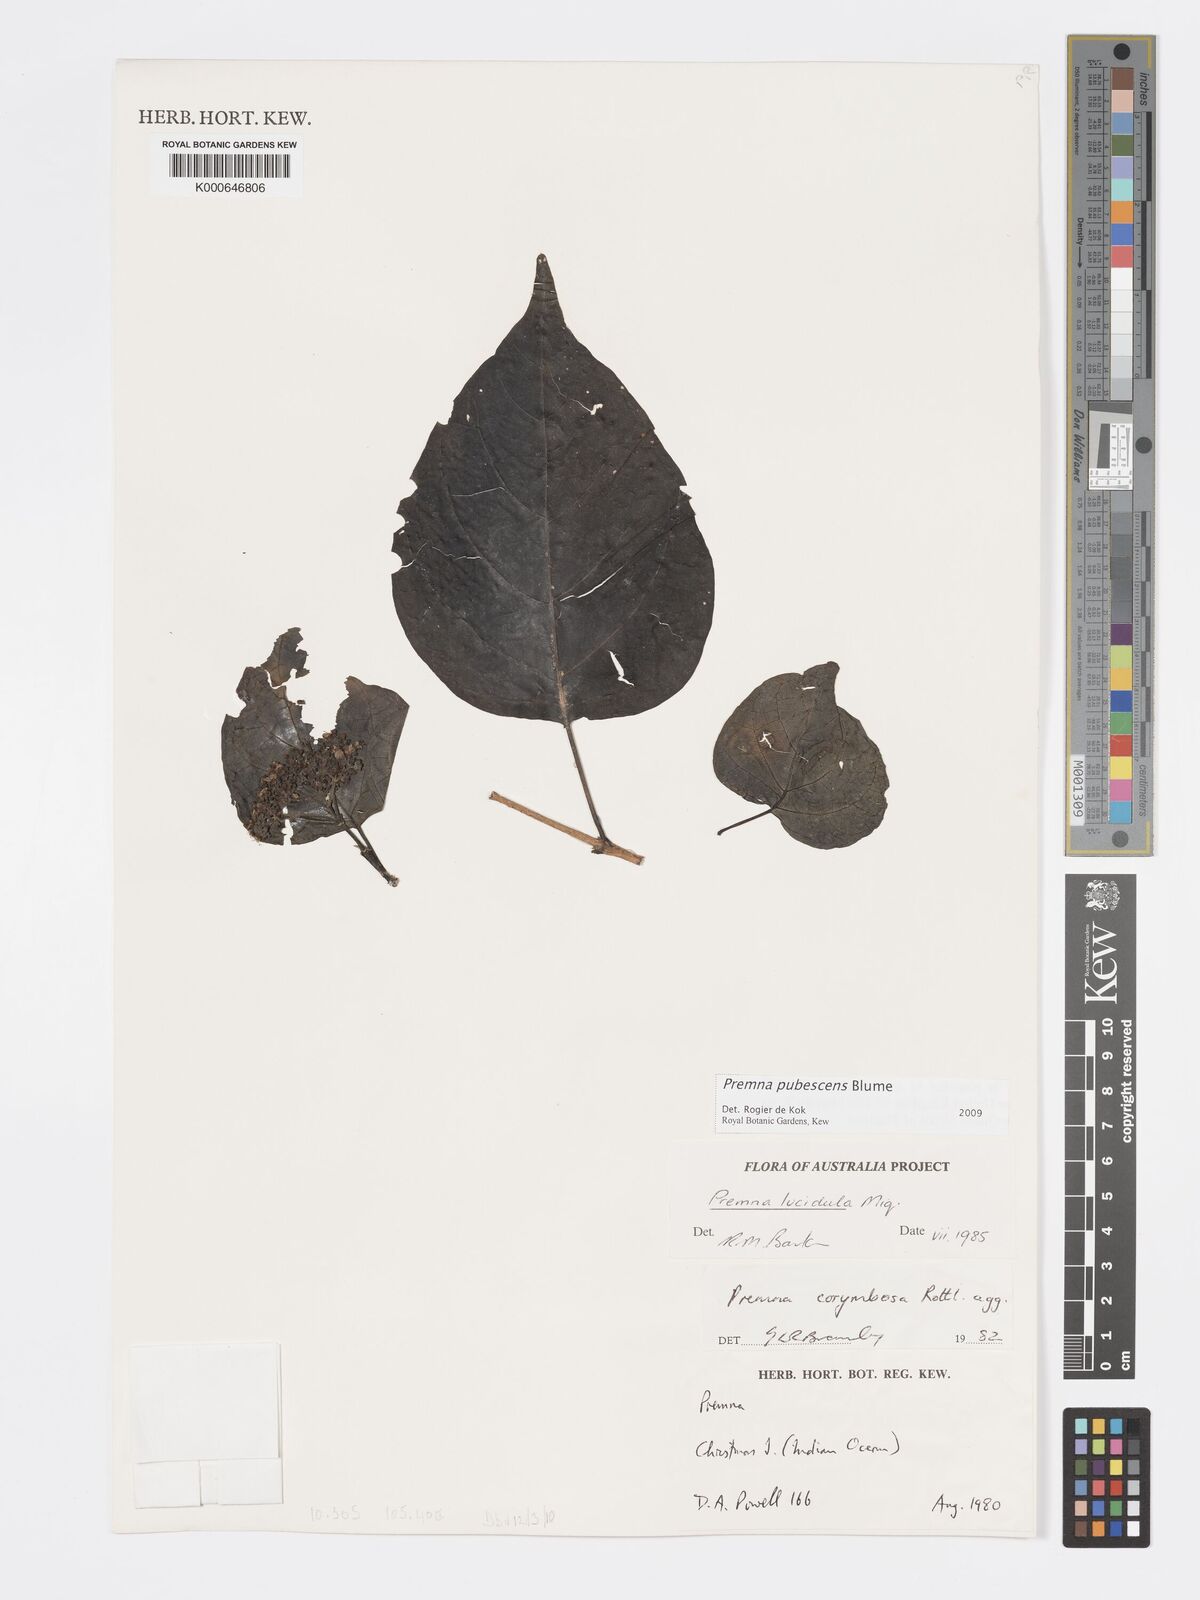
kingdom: Plantae
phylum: Tracheophyta
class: Magnoliopsida
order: Lamiales
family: Lamiaceae
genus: Premna
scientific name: Premna
